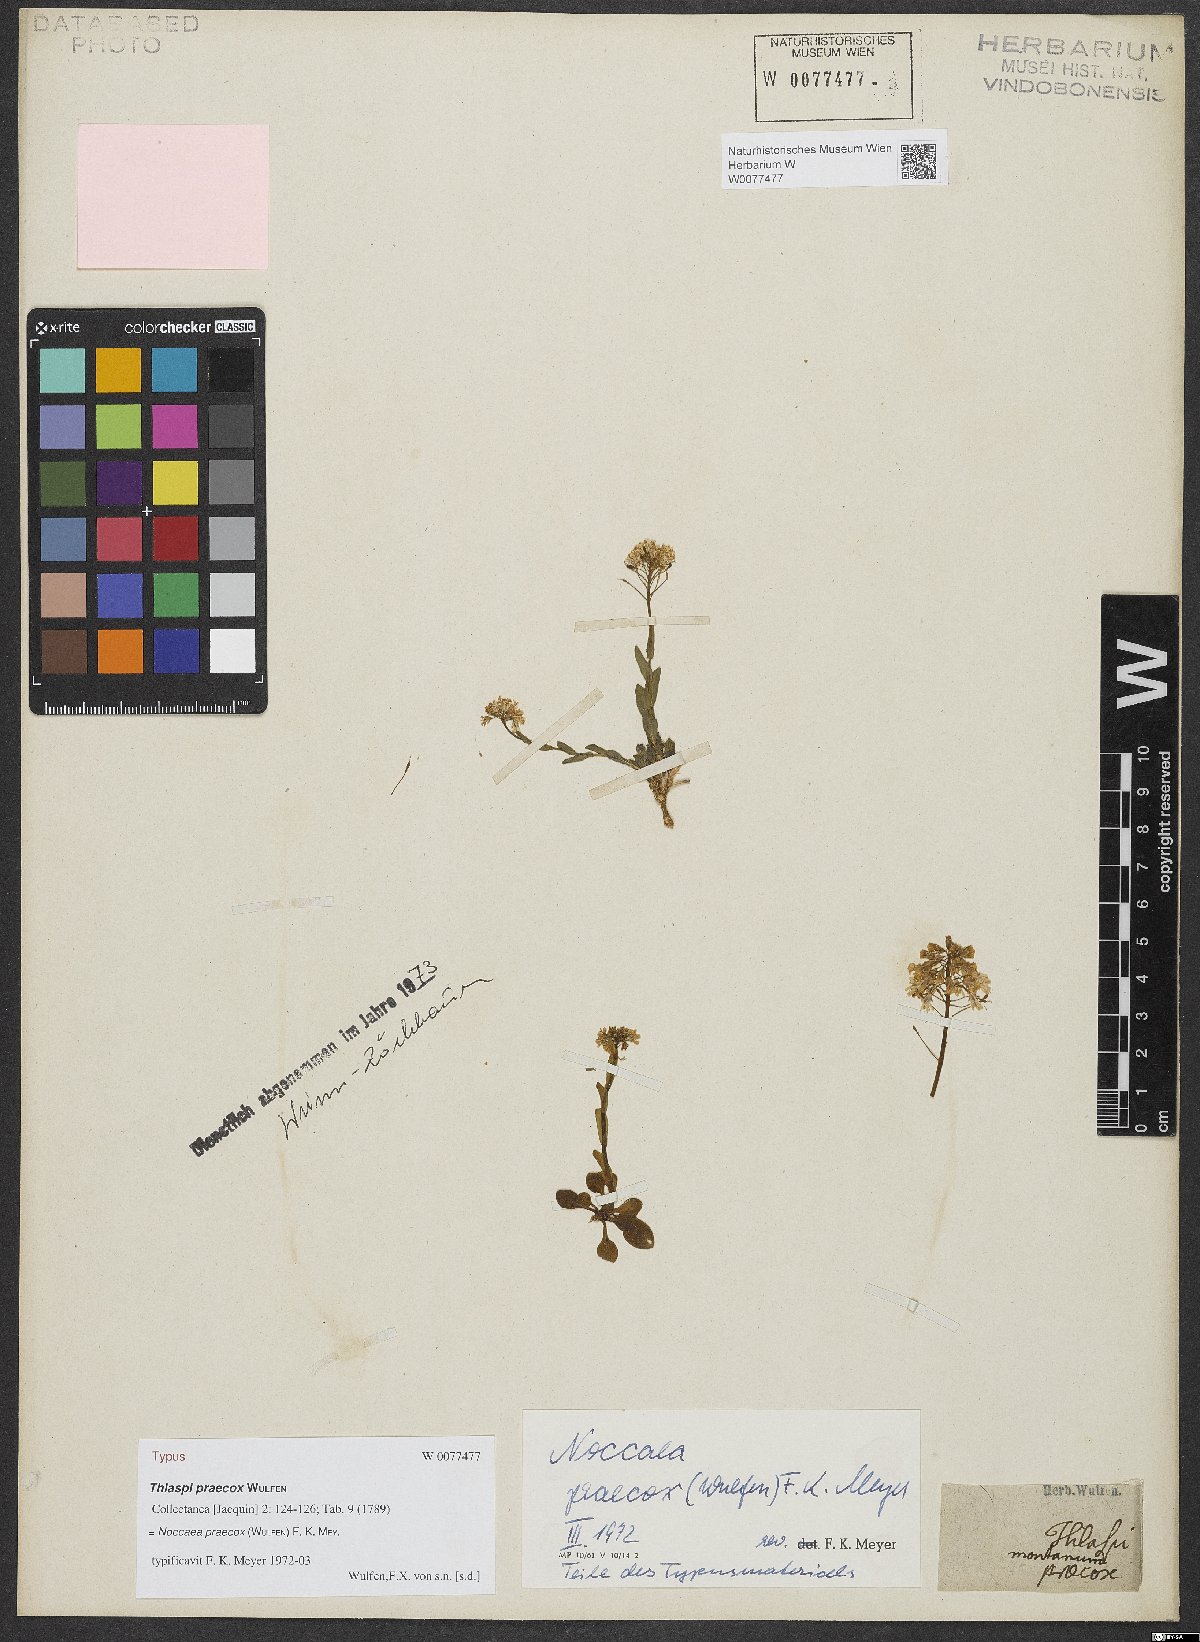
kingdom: Plantae
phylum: Tracheophyta
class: Magnoliopsida
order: Brassicales
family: Brassicaceae
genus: Noccaea
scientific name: Noccaea praecox
